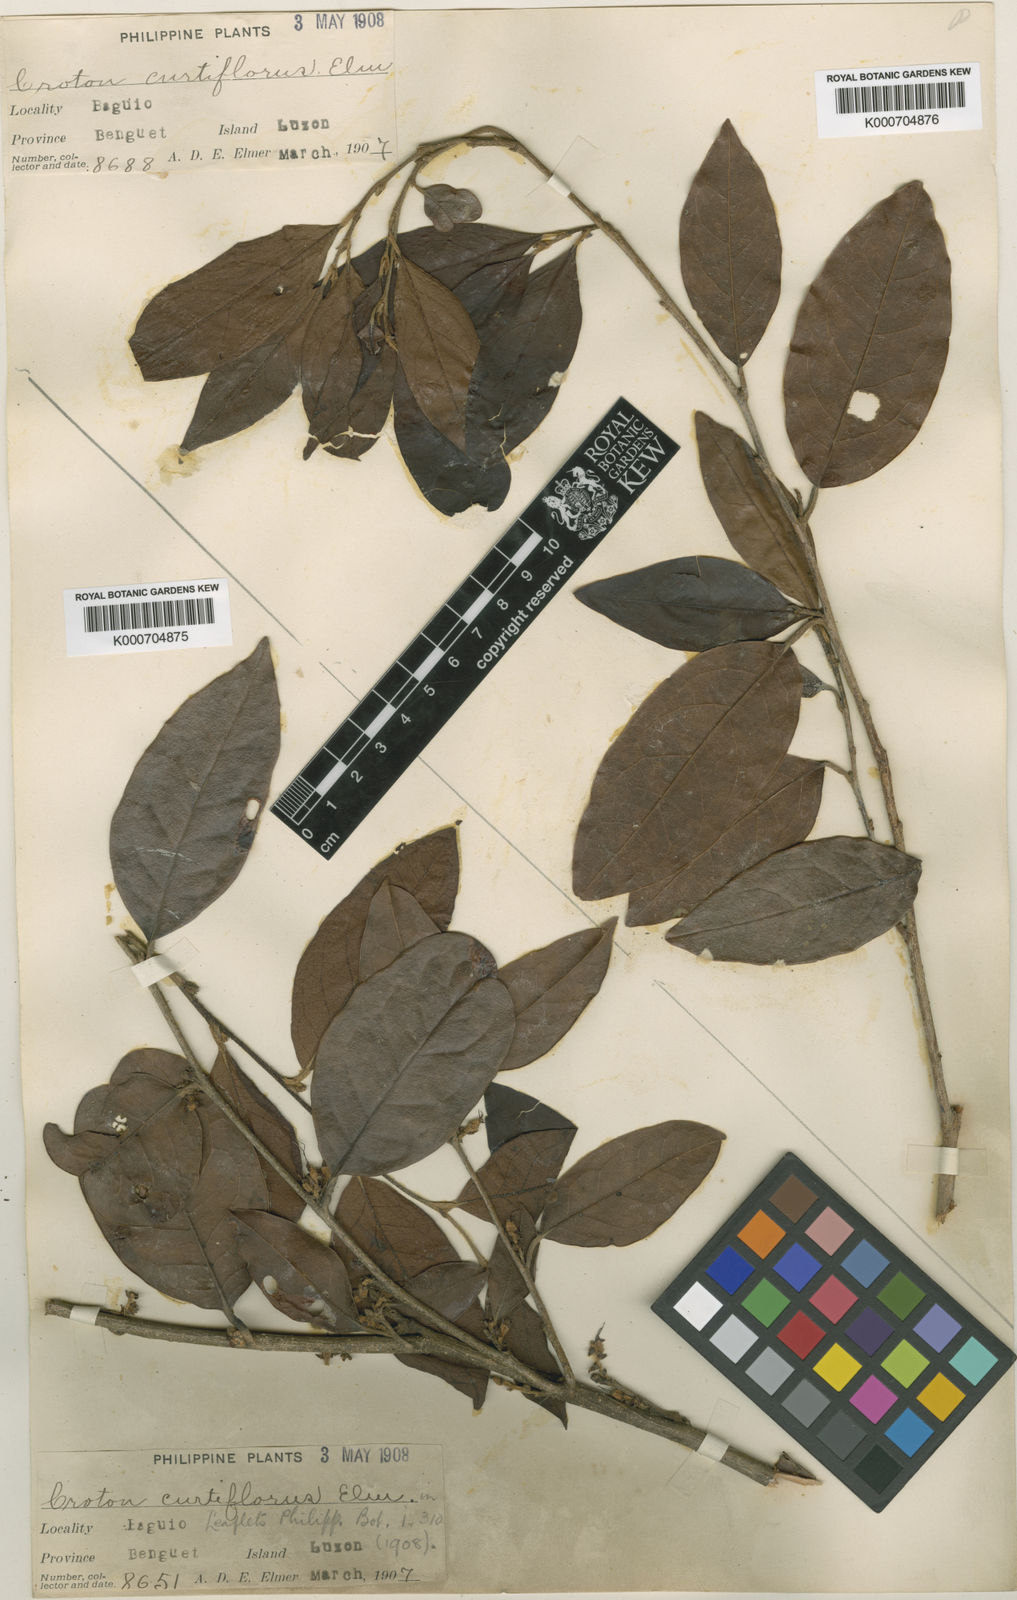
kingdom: Plantae
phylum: Tracheophyta
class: Magnoliopsida
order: Saxifragales
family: Hamamelidaceae
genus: Distyliopsis
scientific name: Distyliopsis dunnii
